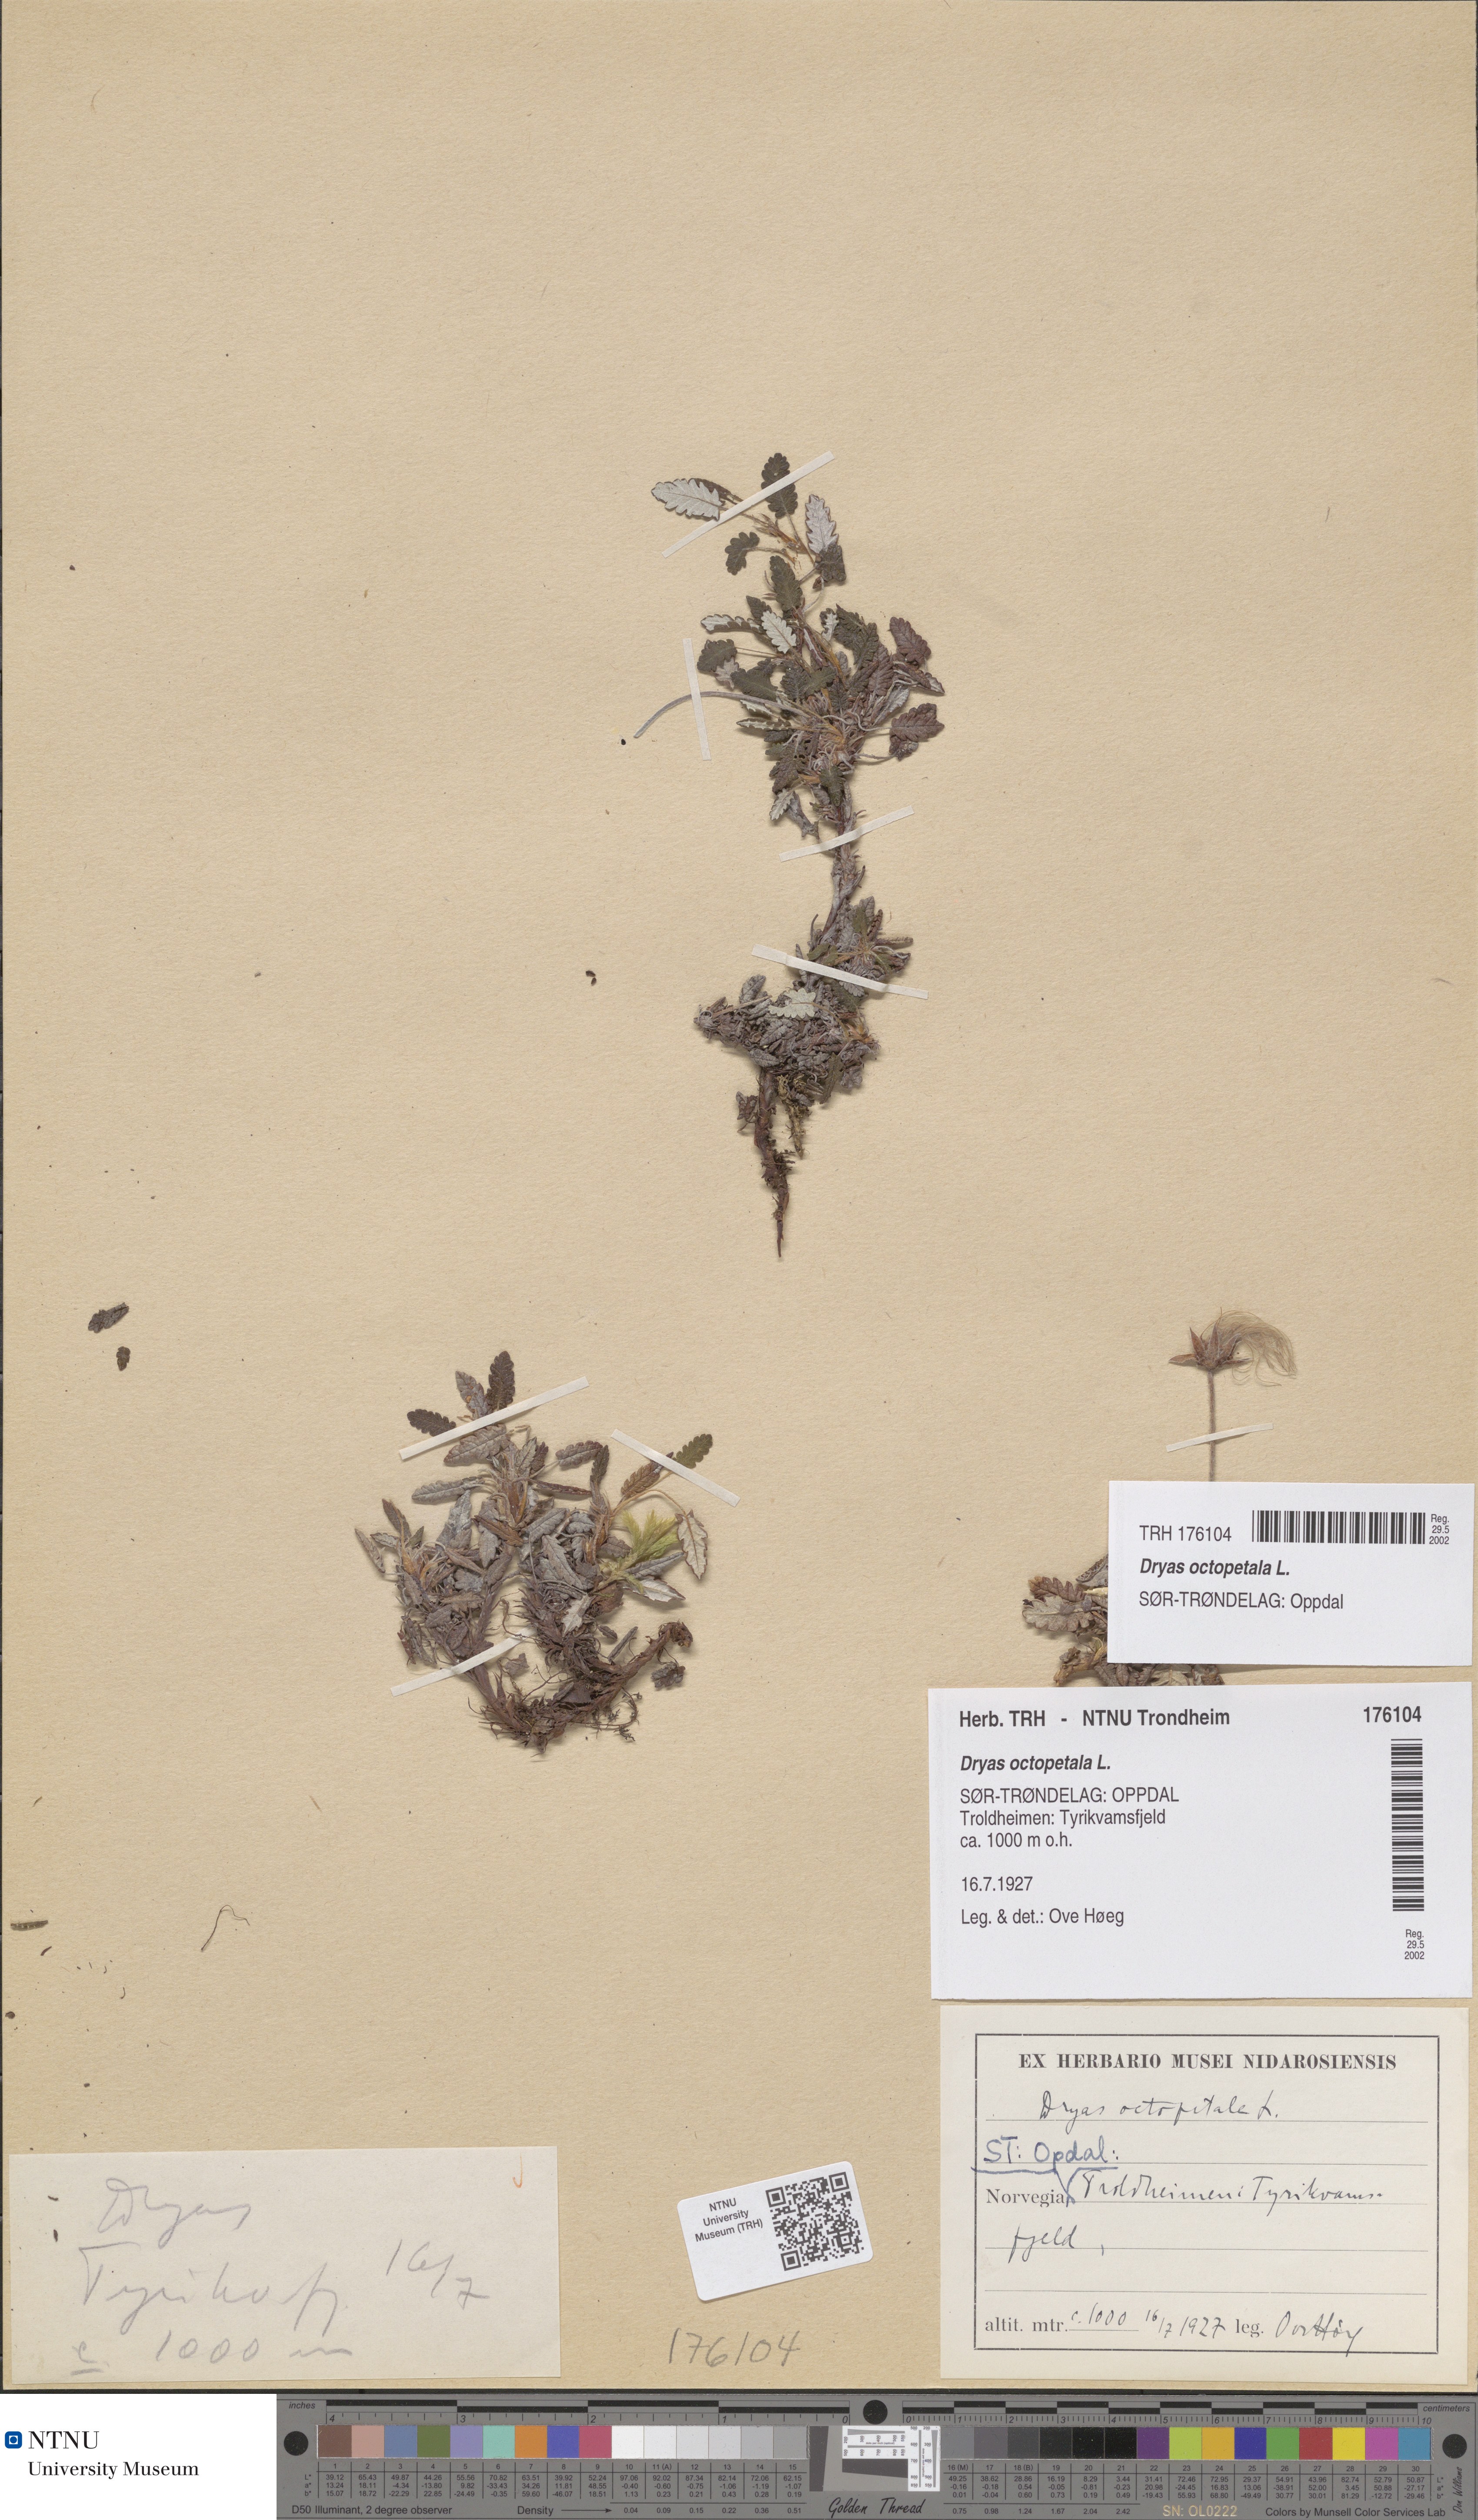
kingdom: Plantae
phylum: Tracheophyta
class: Magnoliopsida
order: Rosales
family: Rosaceae
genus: Dryas
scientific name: Dryas octopetala
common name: Eight-petal mountain-avens
